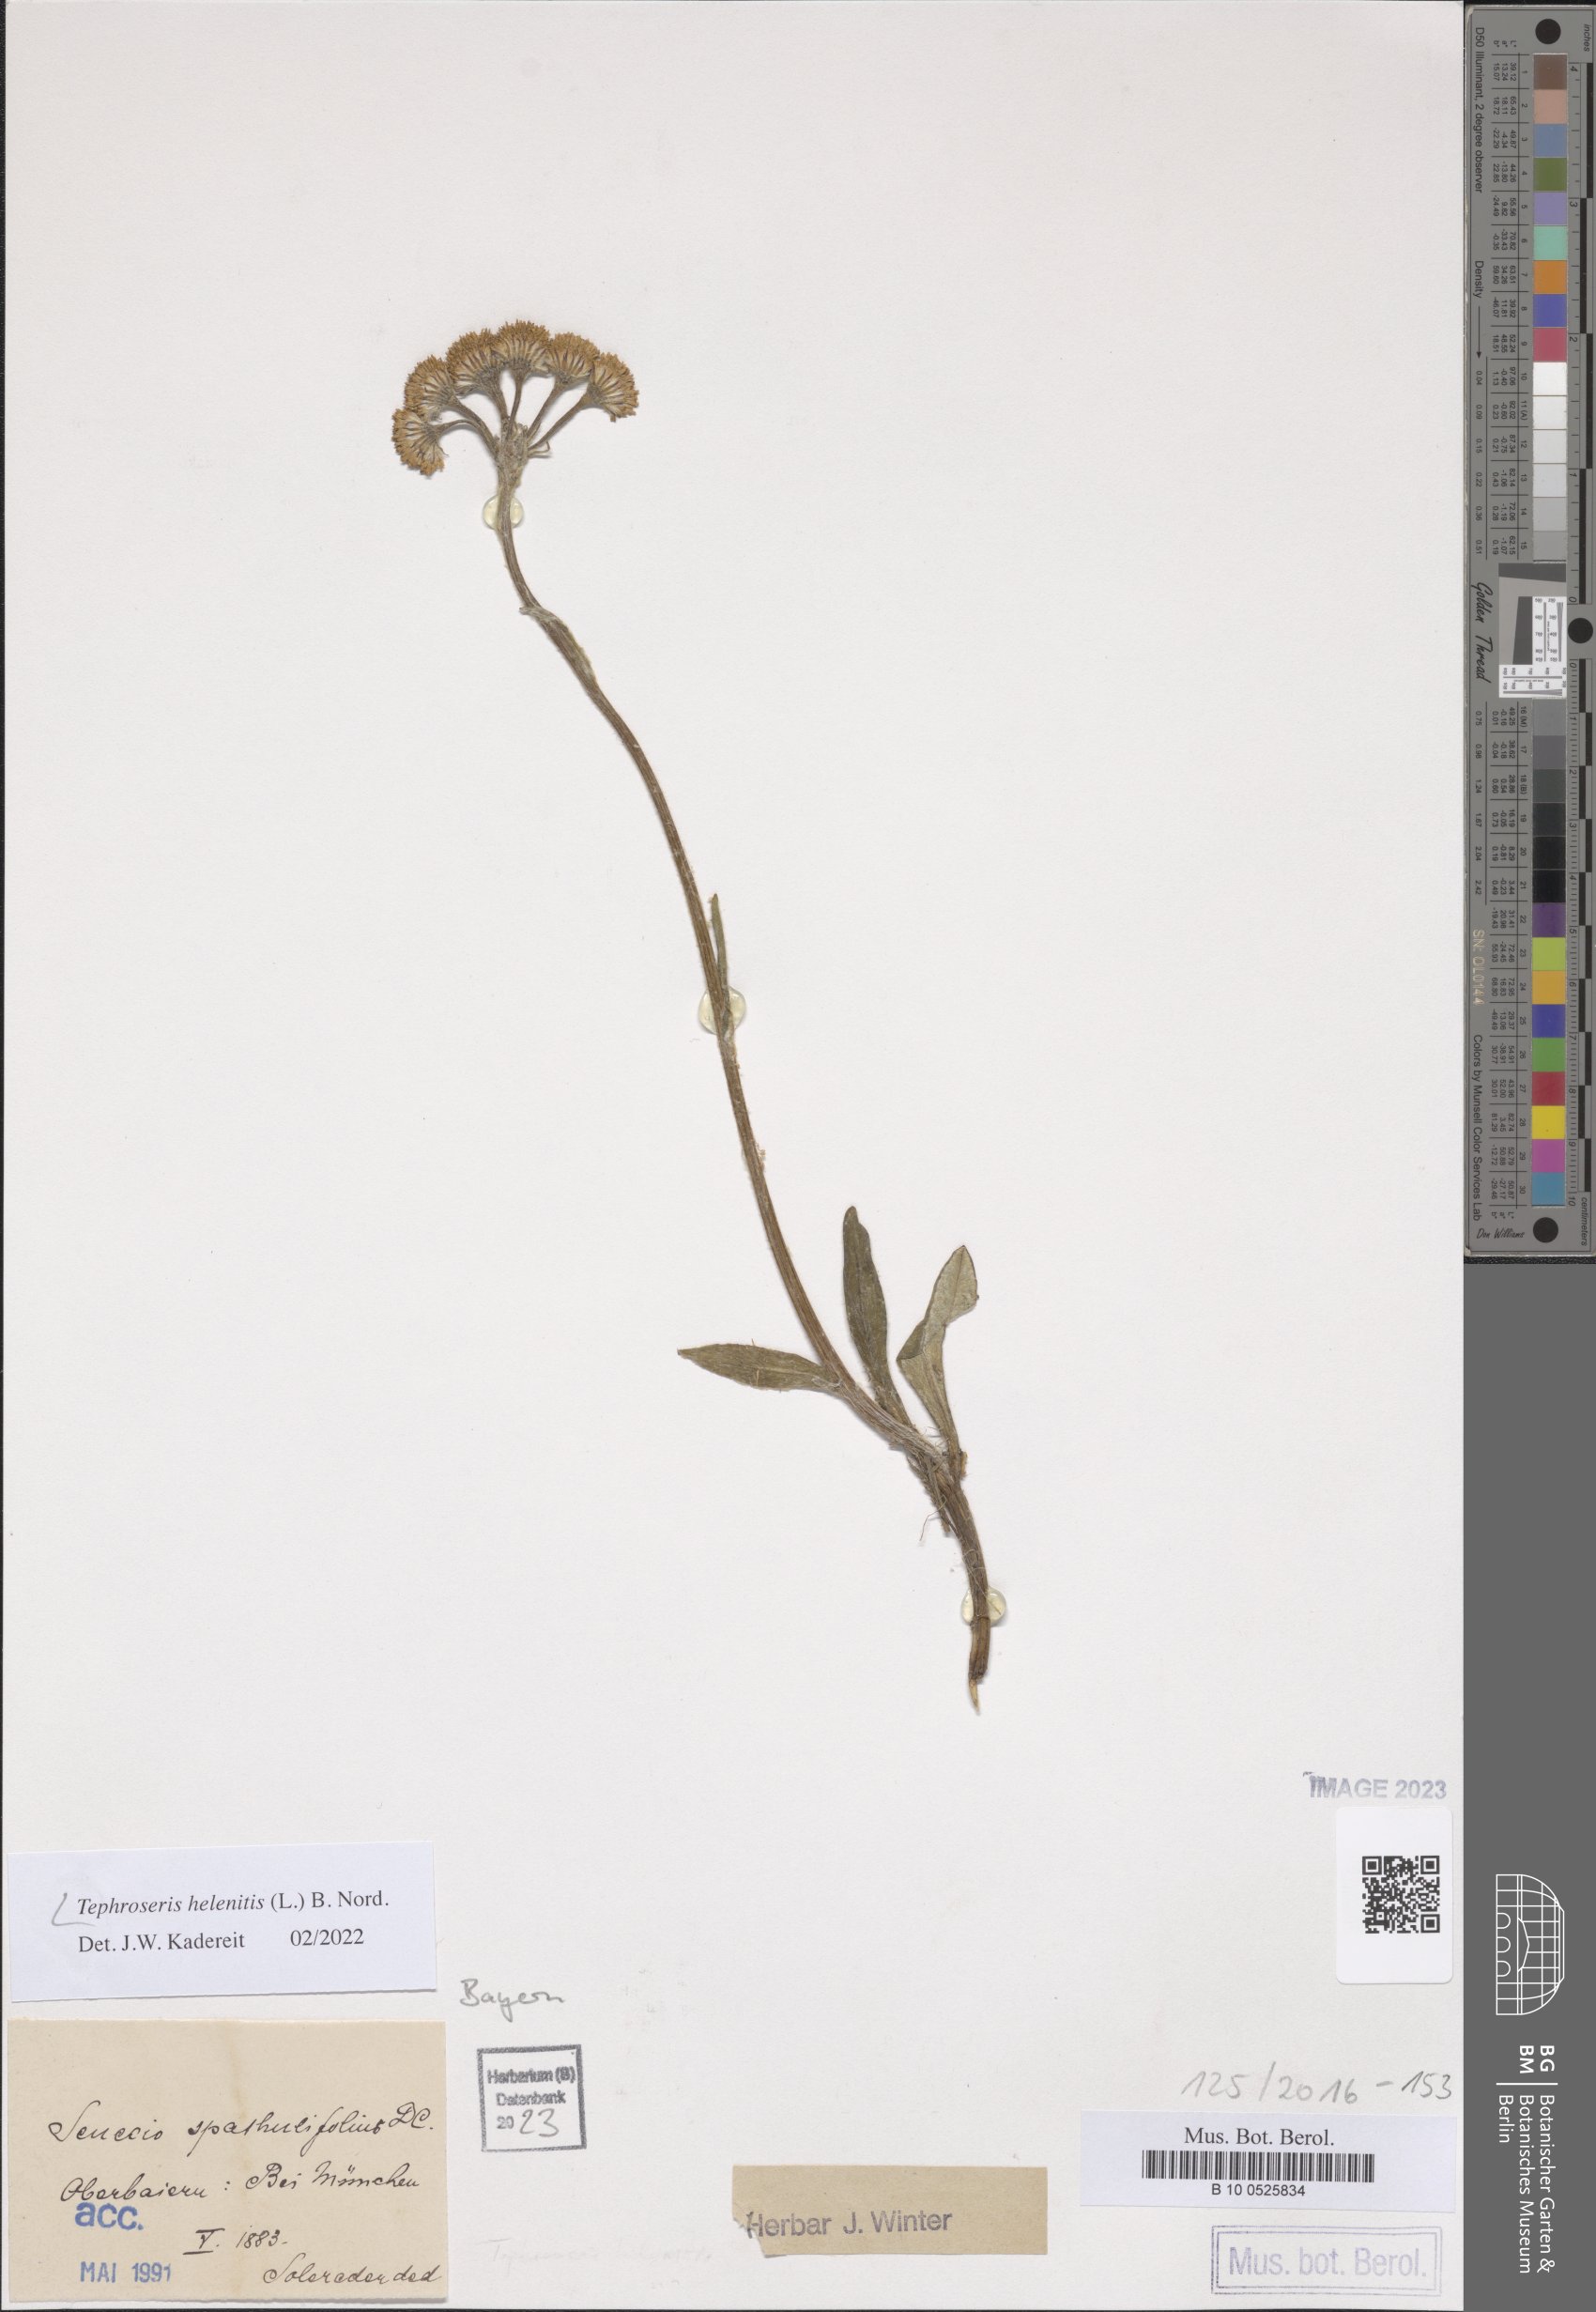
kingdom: Plantae
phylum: Tracheophyta
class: Magnoliopsida
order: Asterales
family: Asteraceae
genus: Tephroseris
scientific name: Tephroseris helenitis
